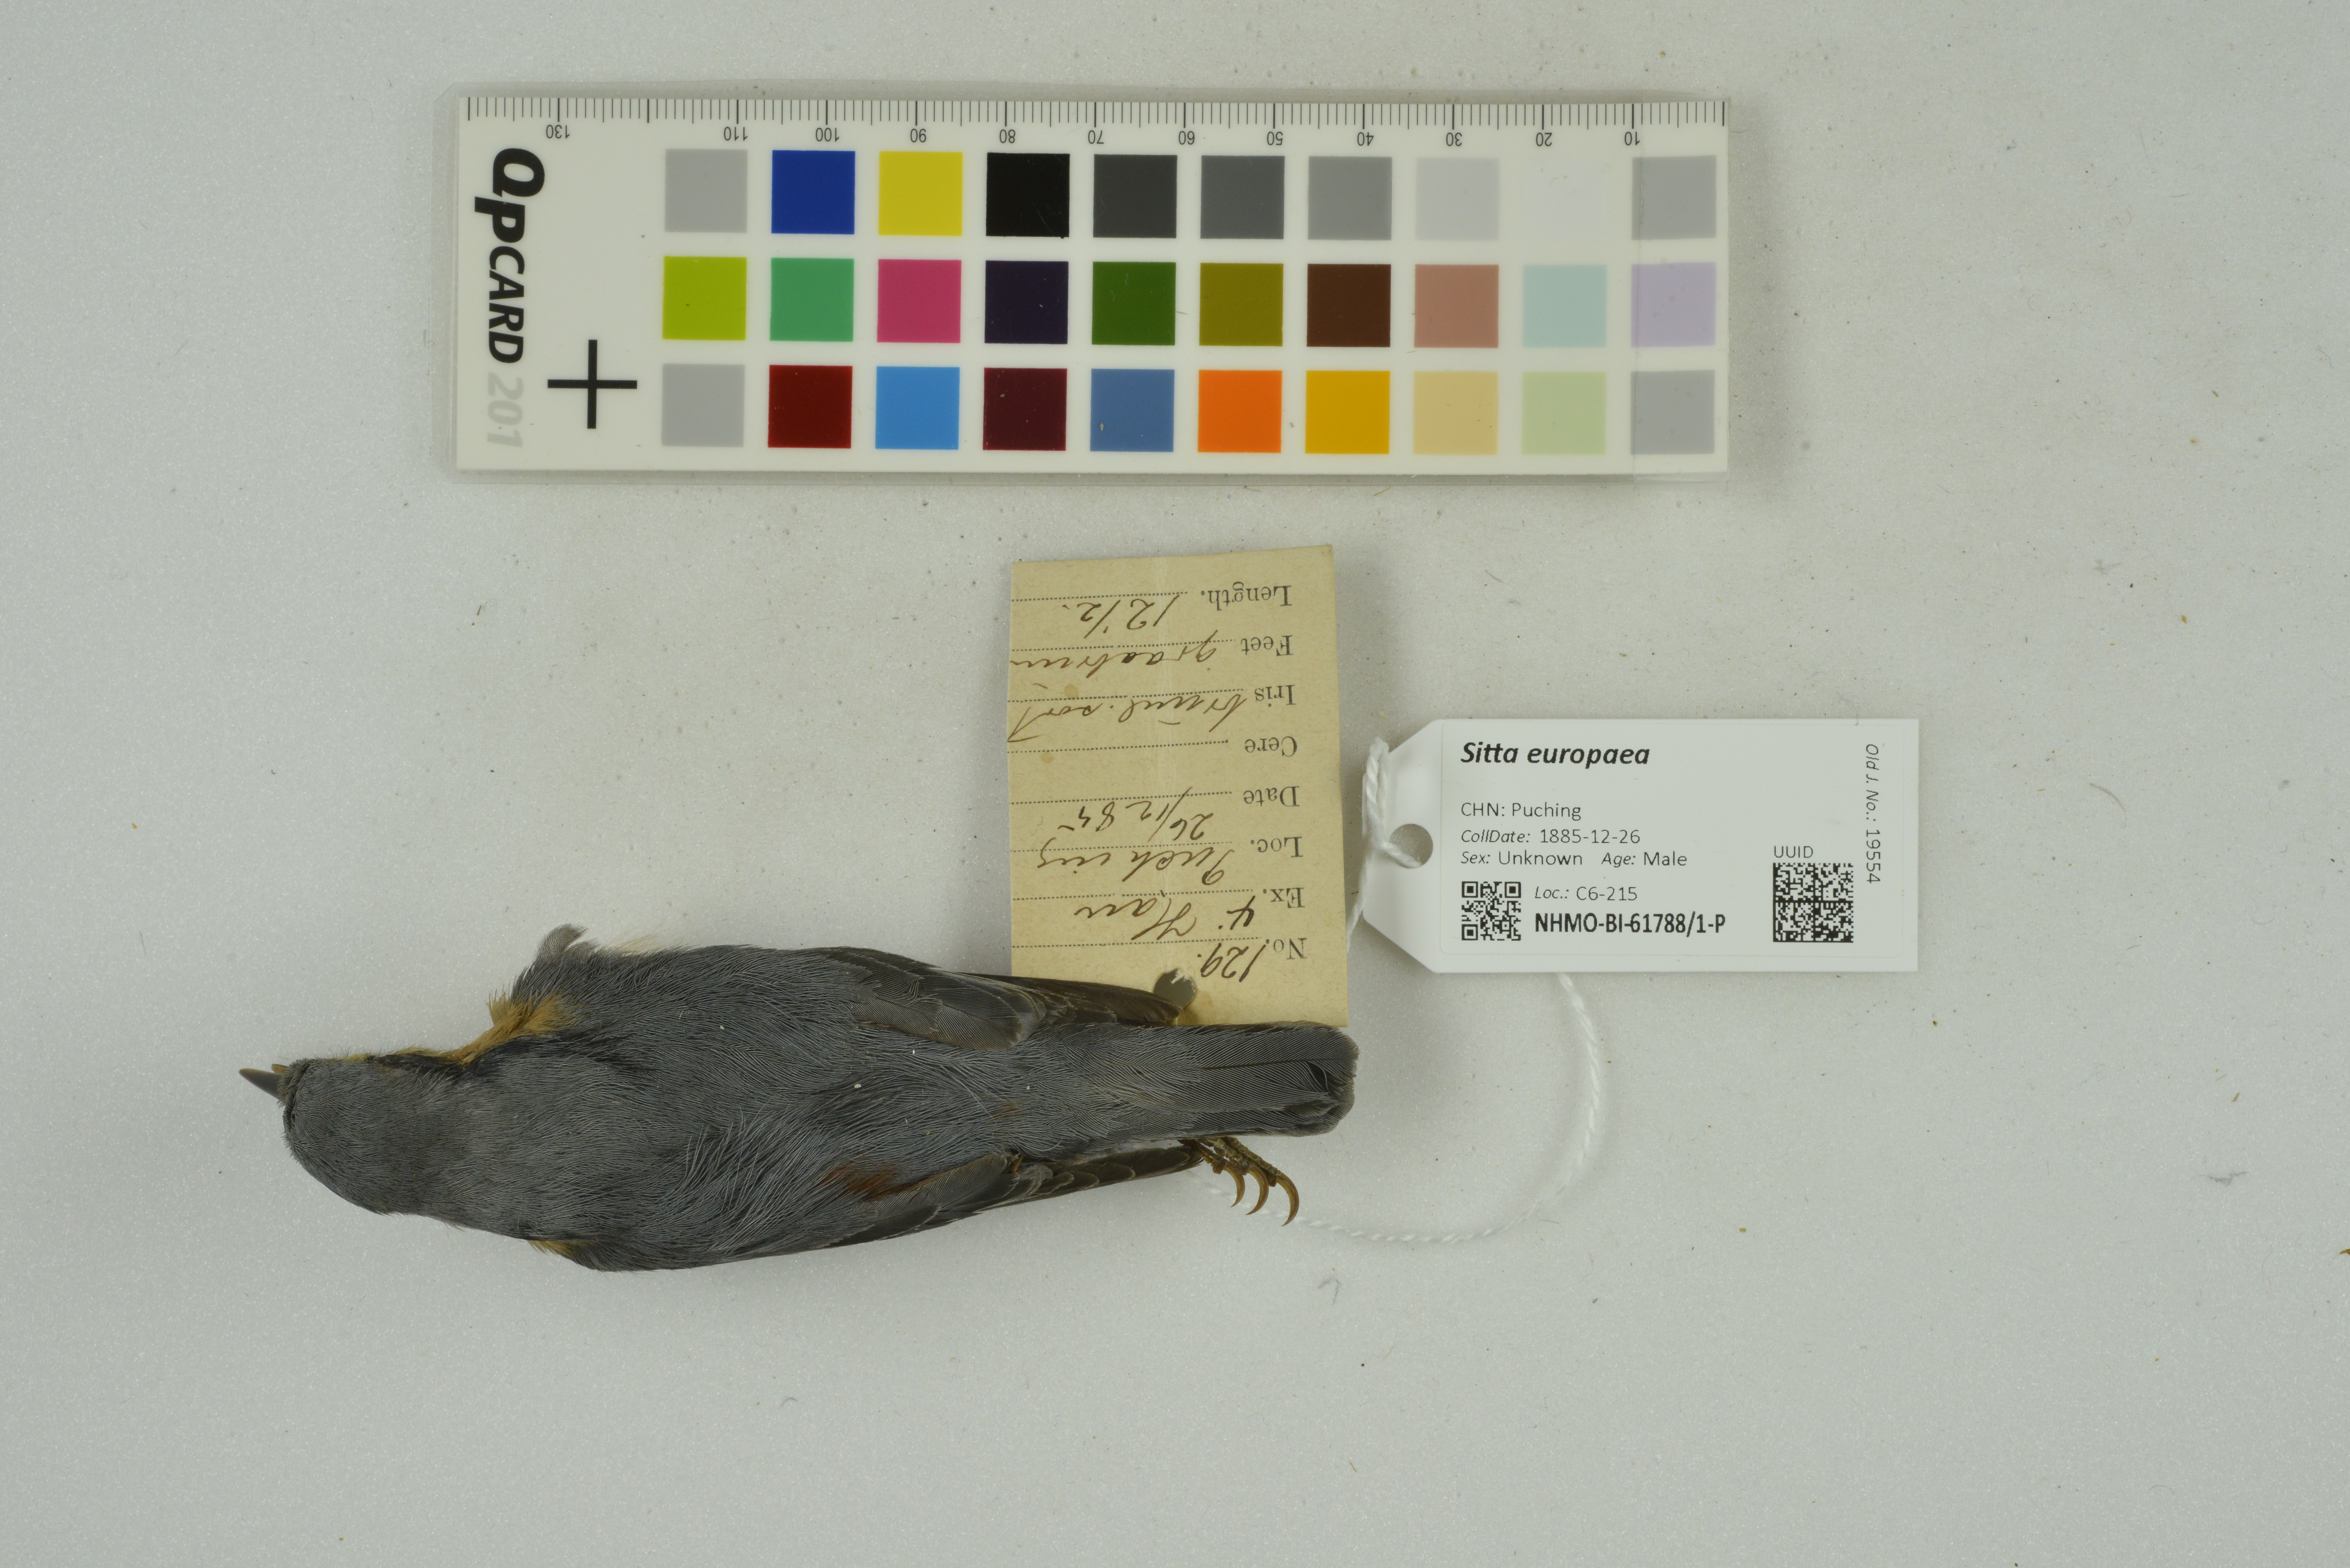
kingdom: Animalia
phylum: Chordata
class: Aves
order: Passeriformes
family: Sittidae
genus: Sitta
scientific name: Sitta europaea
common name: Eurasian nuthatch
